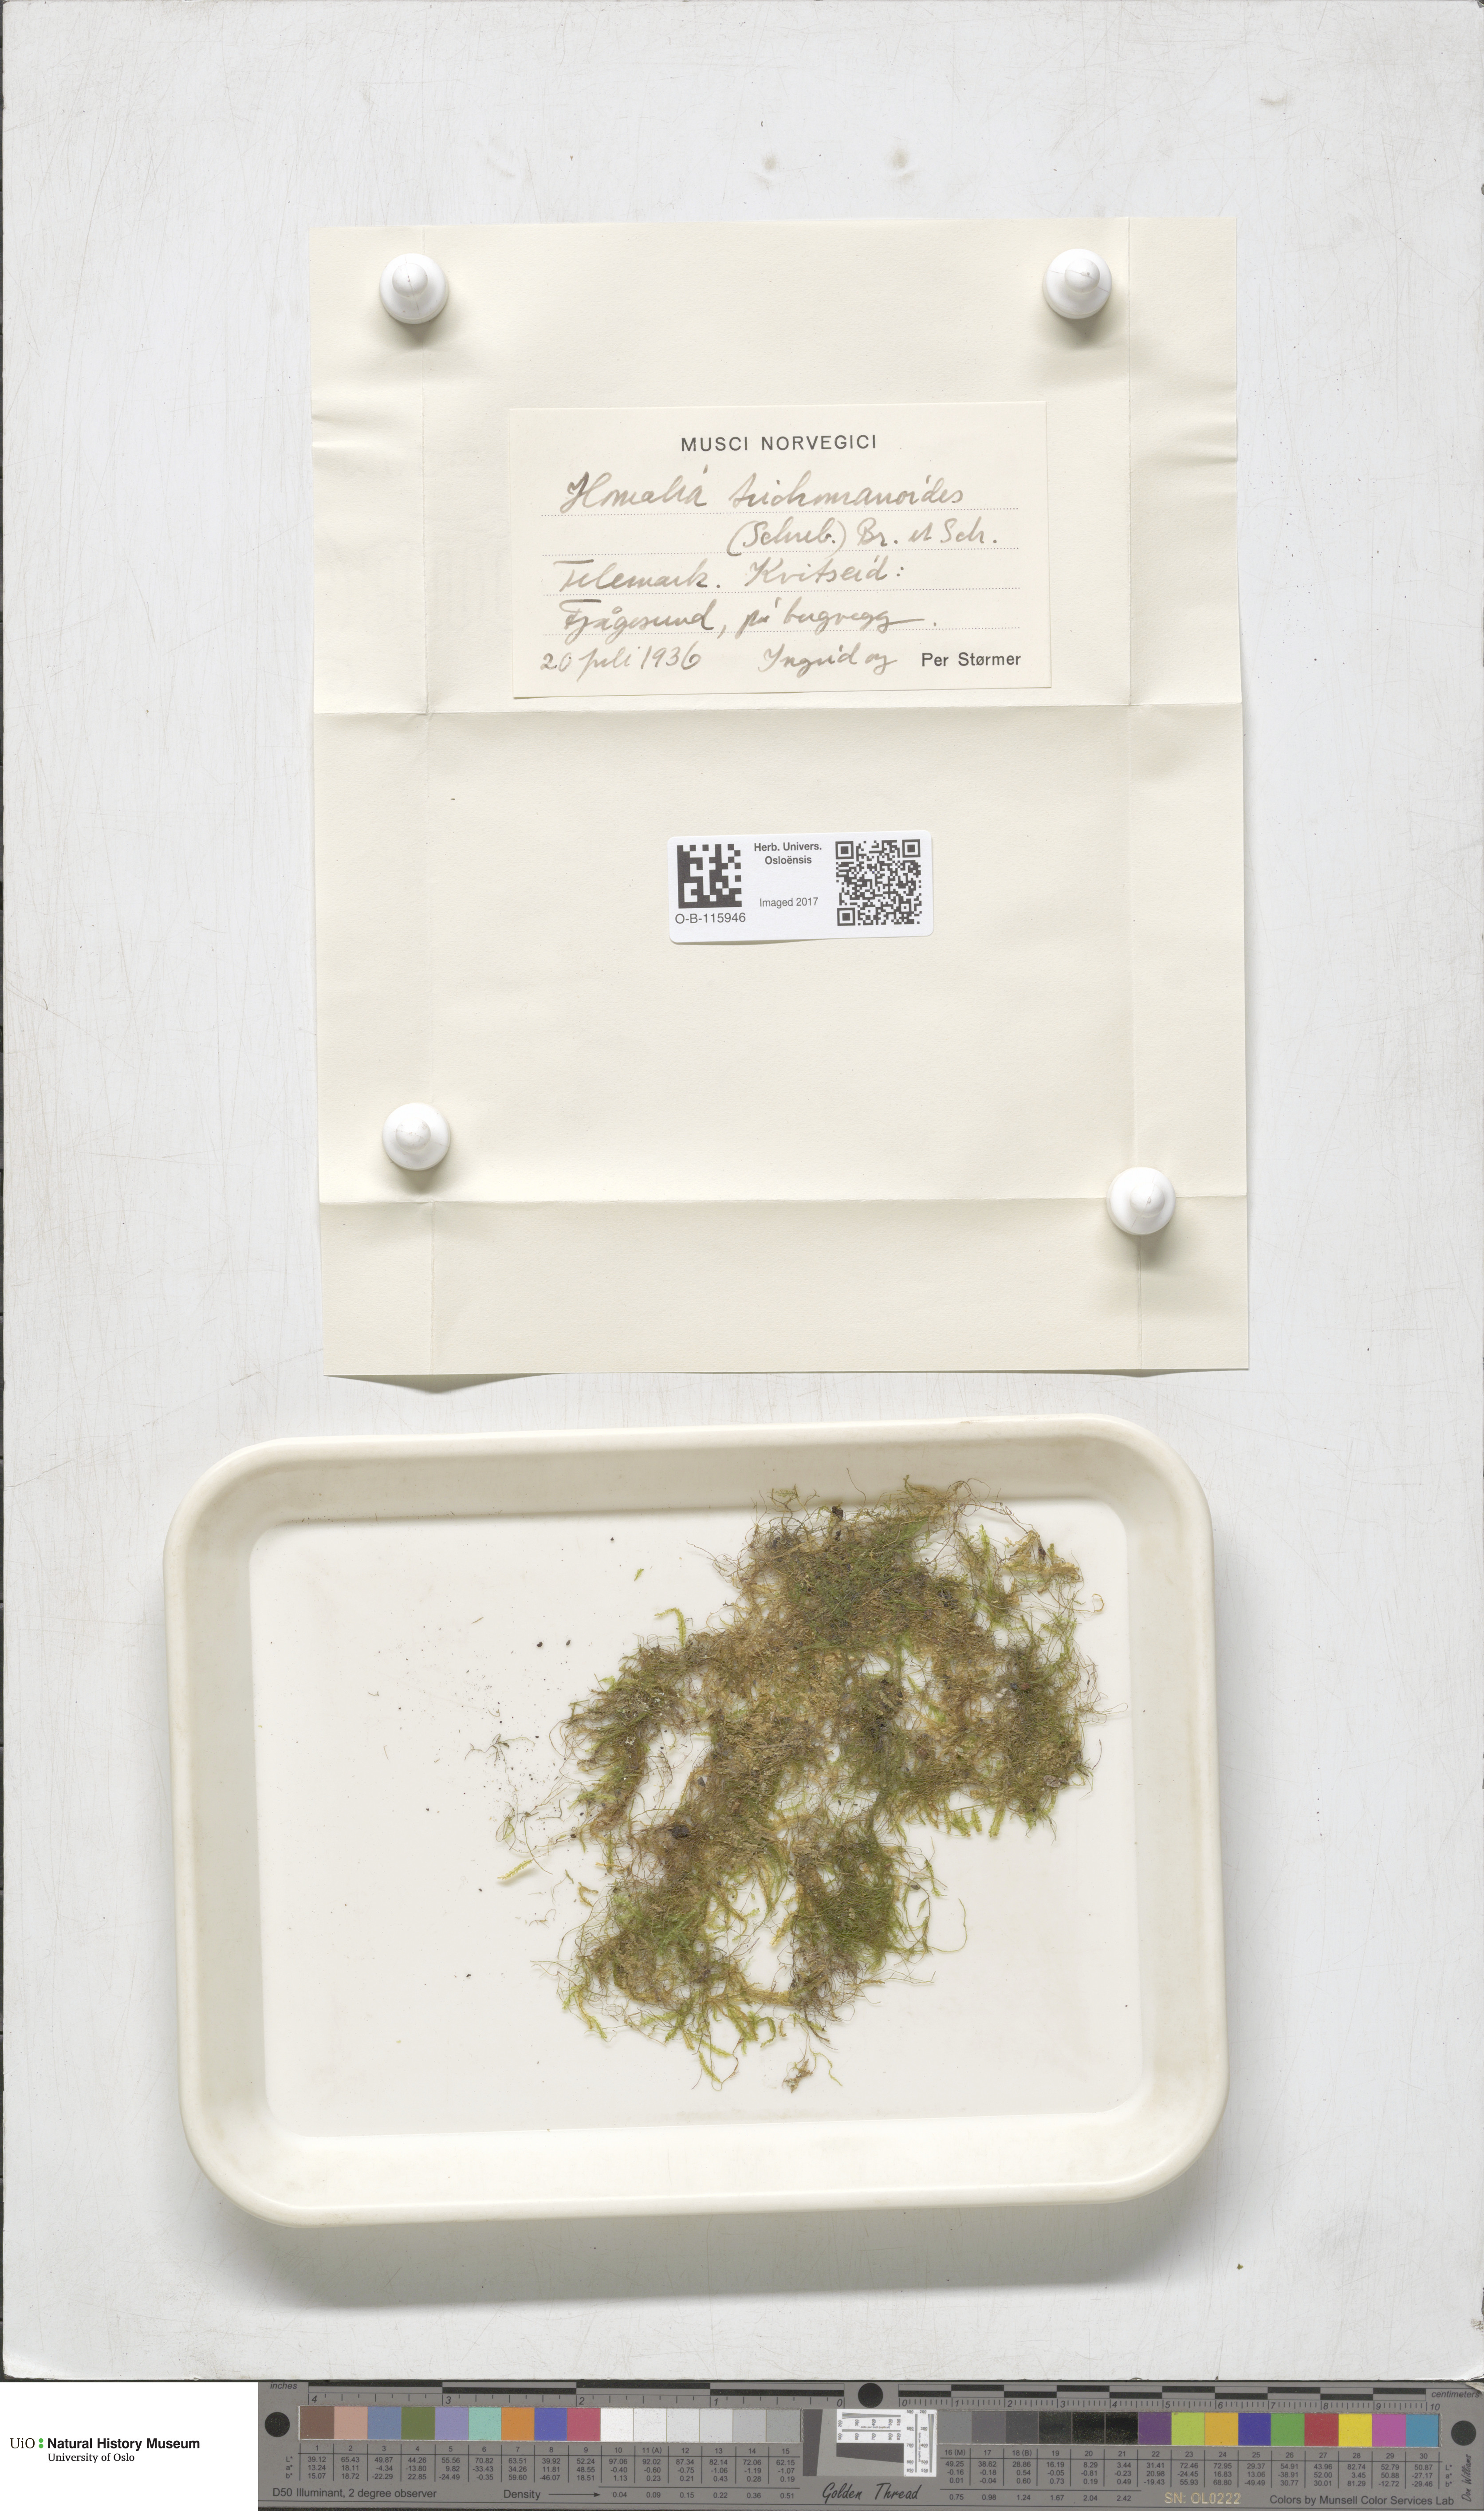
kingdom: Plantae
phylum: Bryophyta
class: Bryopsida
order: Hypnales
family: Neckeraceae
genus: Homalia
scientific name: Homalia trichomanoides
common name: Lime homalia moss
